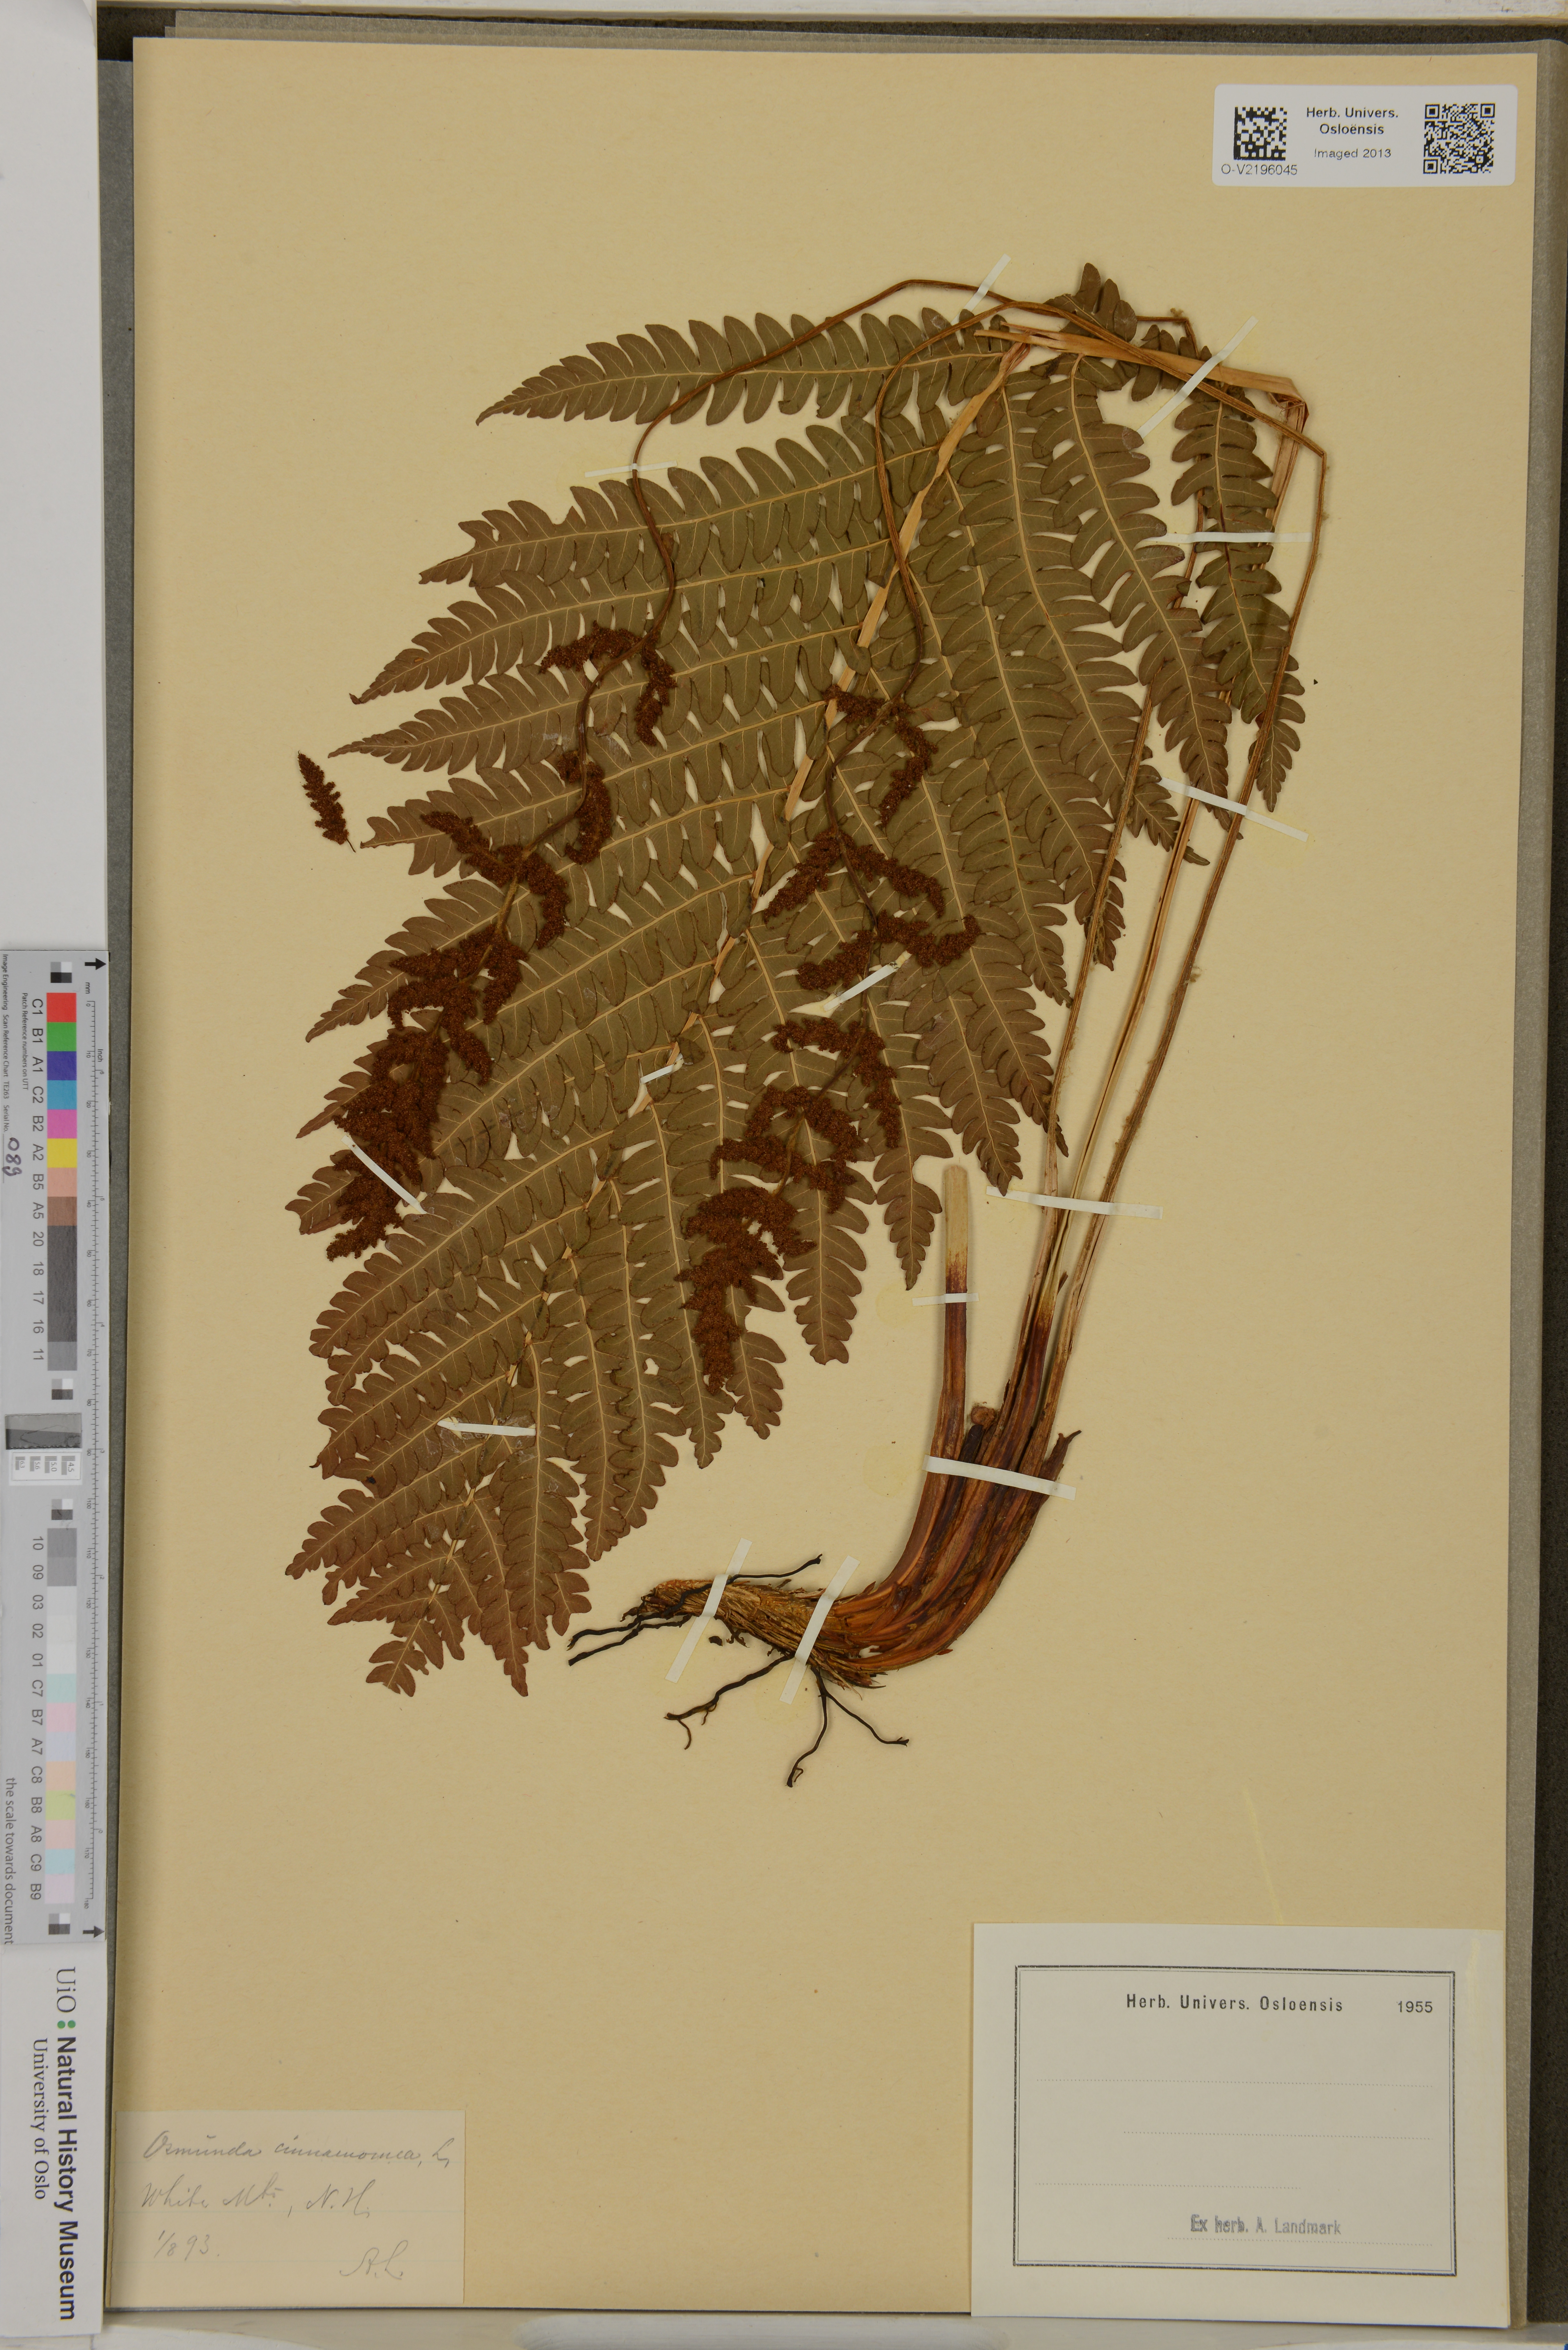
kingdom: Plantae
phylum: Tracheophyta
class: Polypodiopsida
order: Osmundales
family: Osmundaceae
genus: Osmundastrum
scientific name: Osmundastrum cinnamomeum
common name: Cinnamon fern
